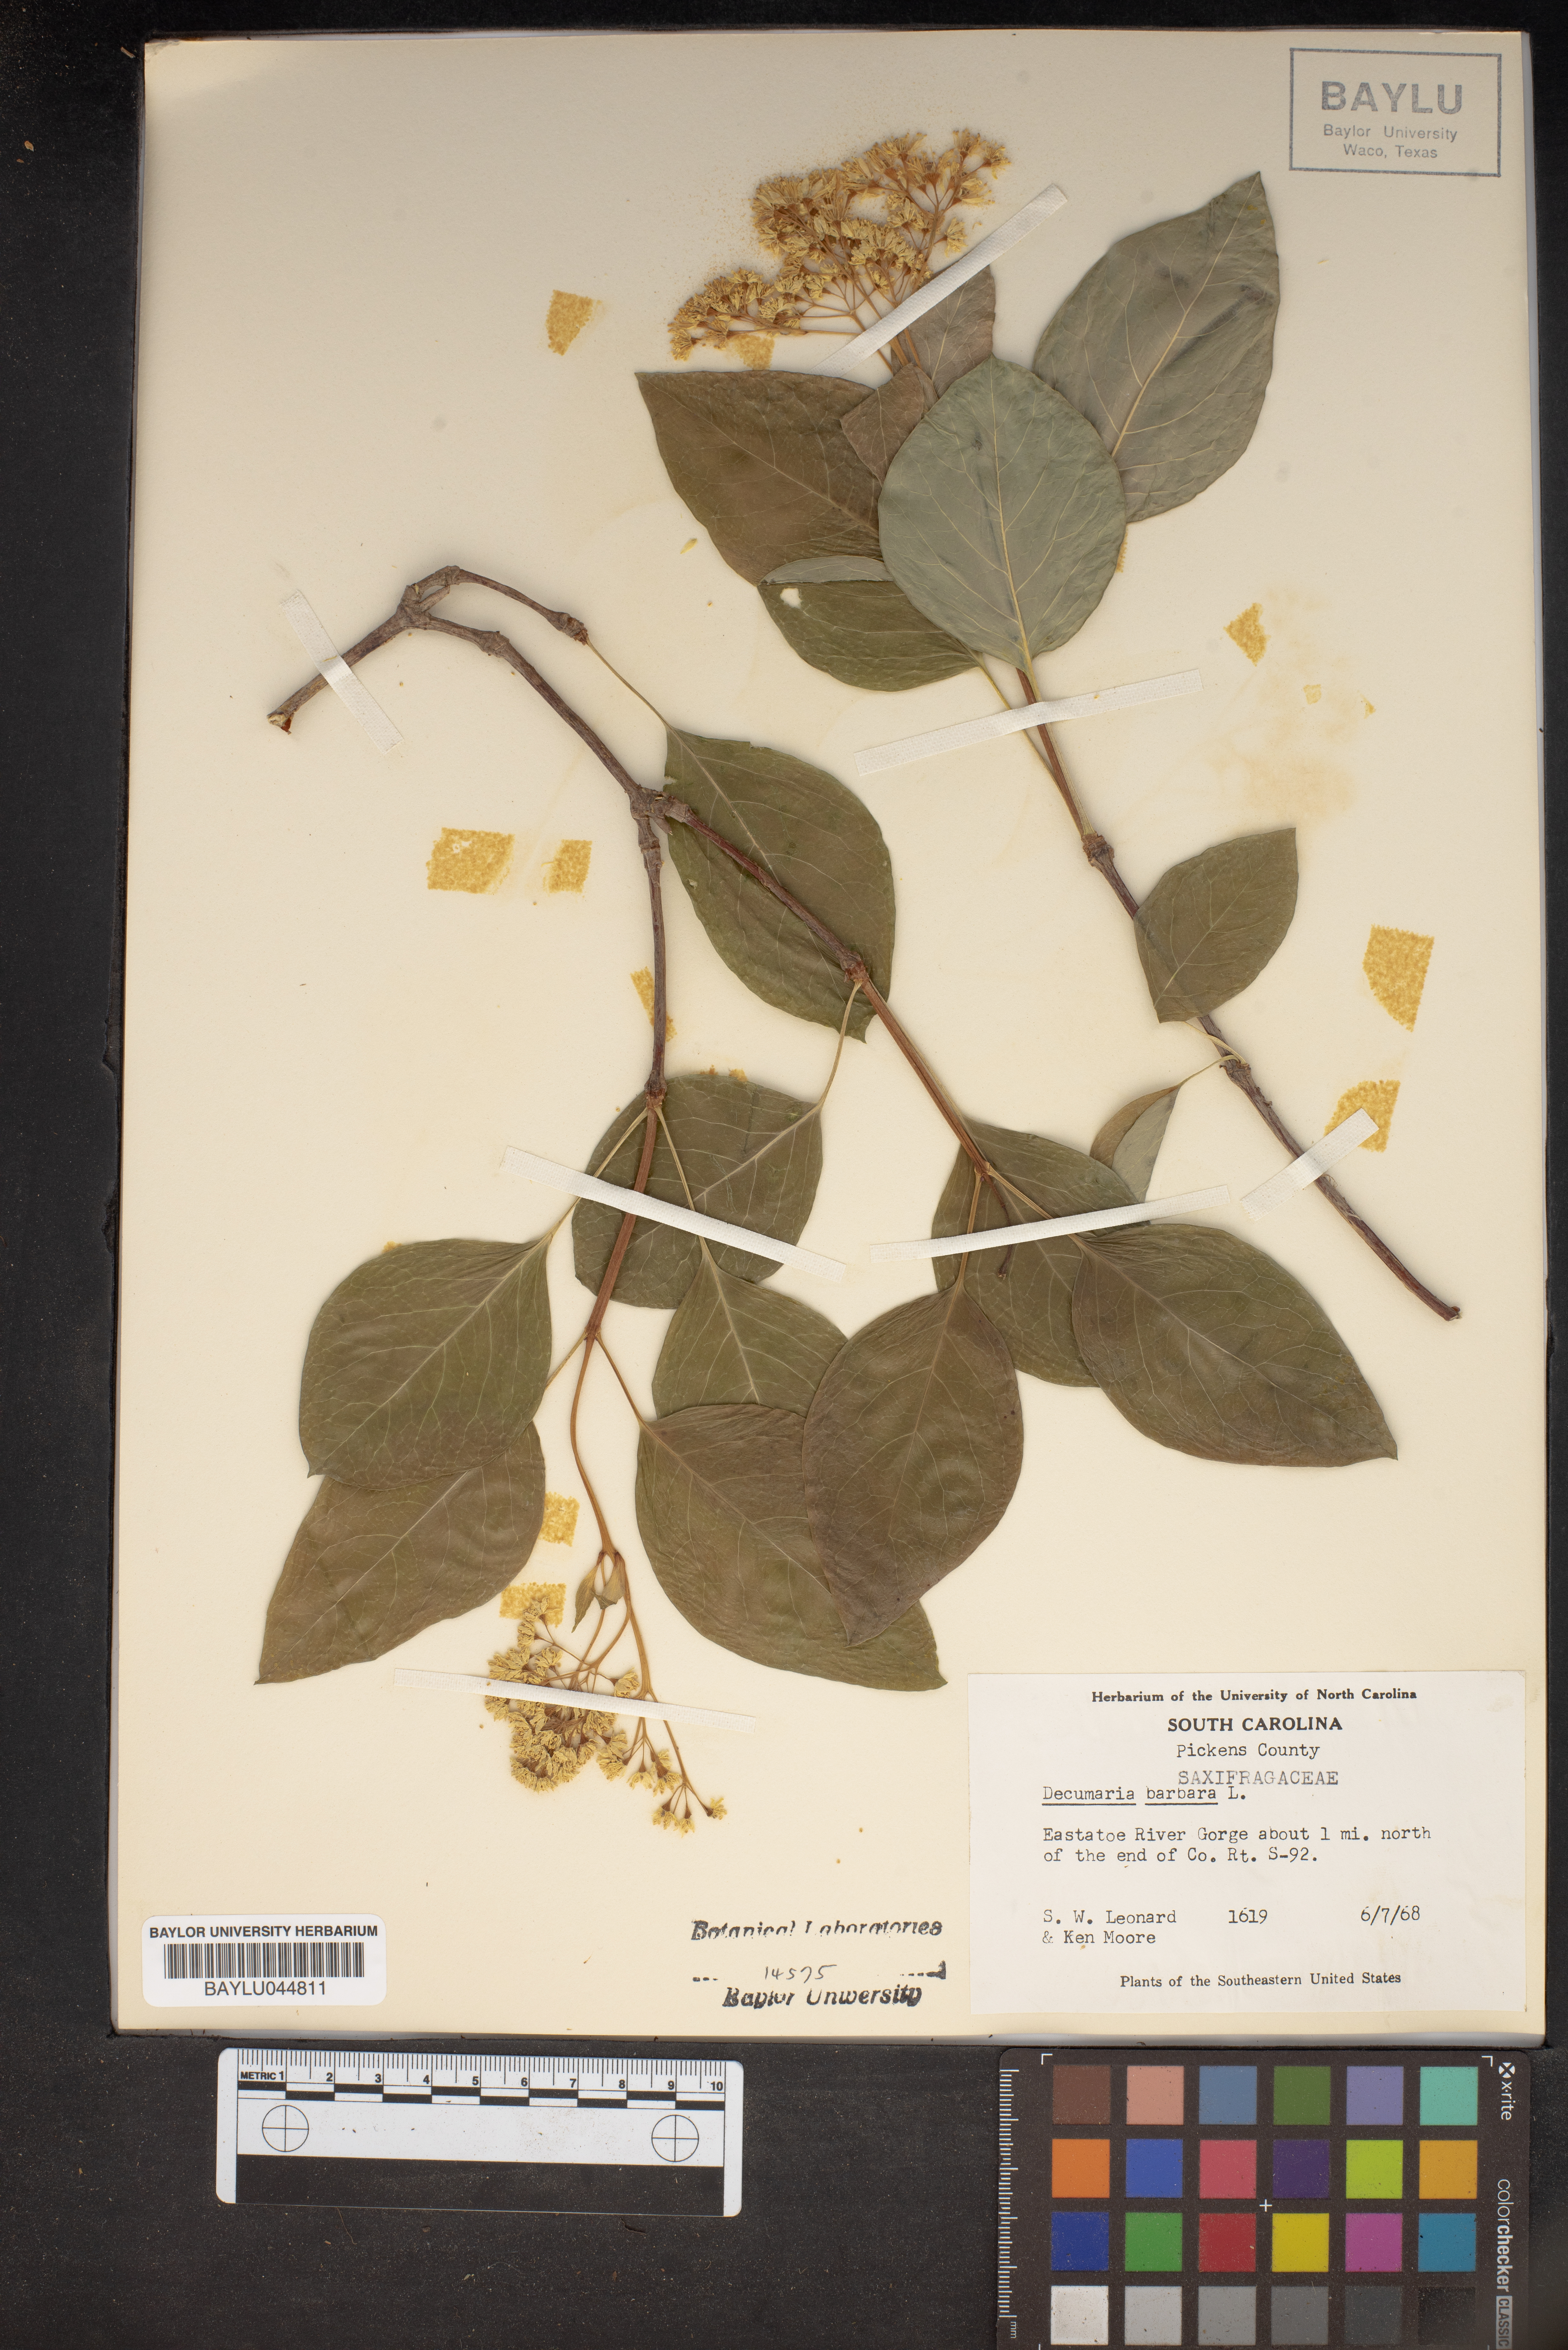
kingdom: Plantae
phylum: Tracheophyta
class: Magnoliopsida
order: Cornales
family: Hydrangeaceae
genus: Hydrangea
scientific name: Hydrangea barbara
